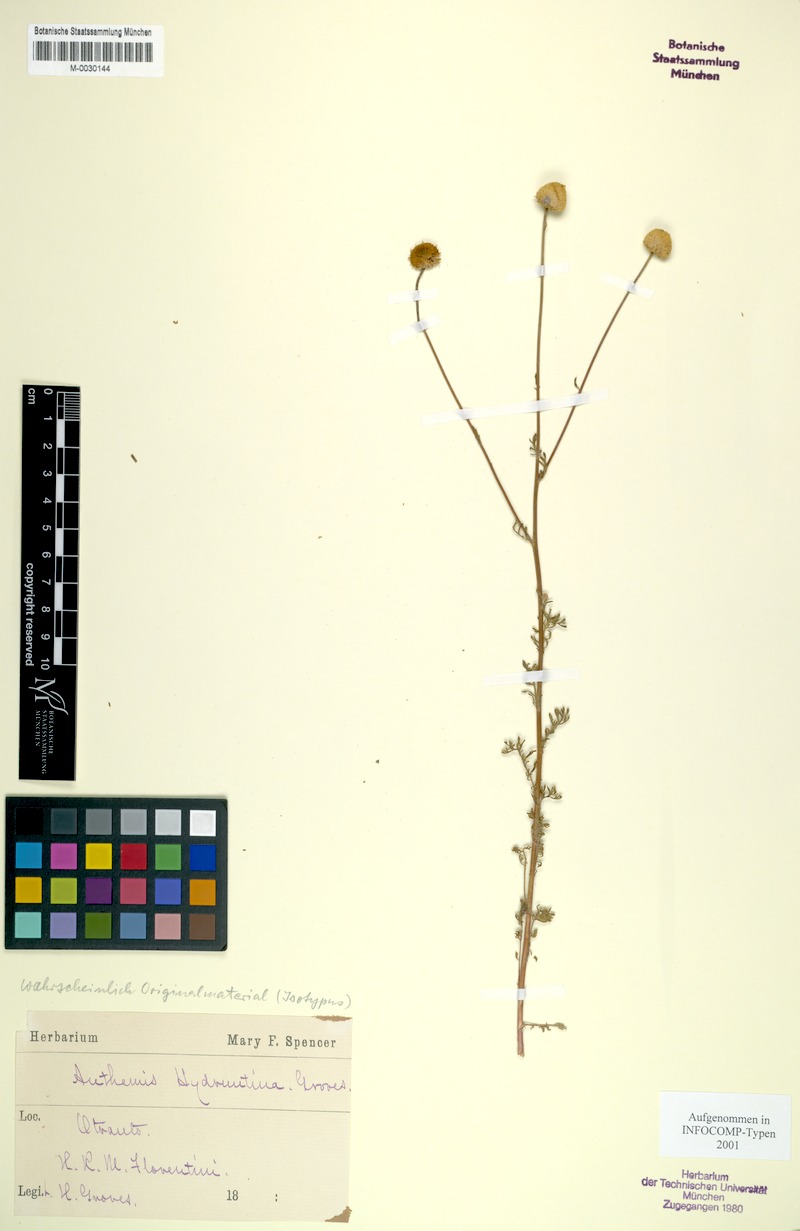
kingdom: Plantae
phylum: Tracheophyta
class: Magnoliopsida
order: Asterales
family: Asteraceae
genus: Anthemis
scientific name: Anthemis hydruntina
